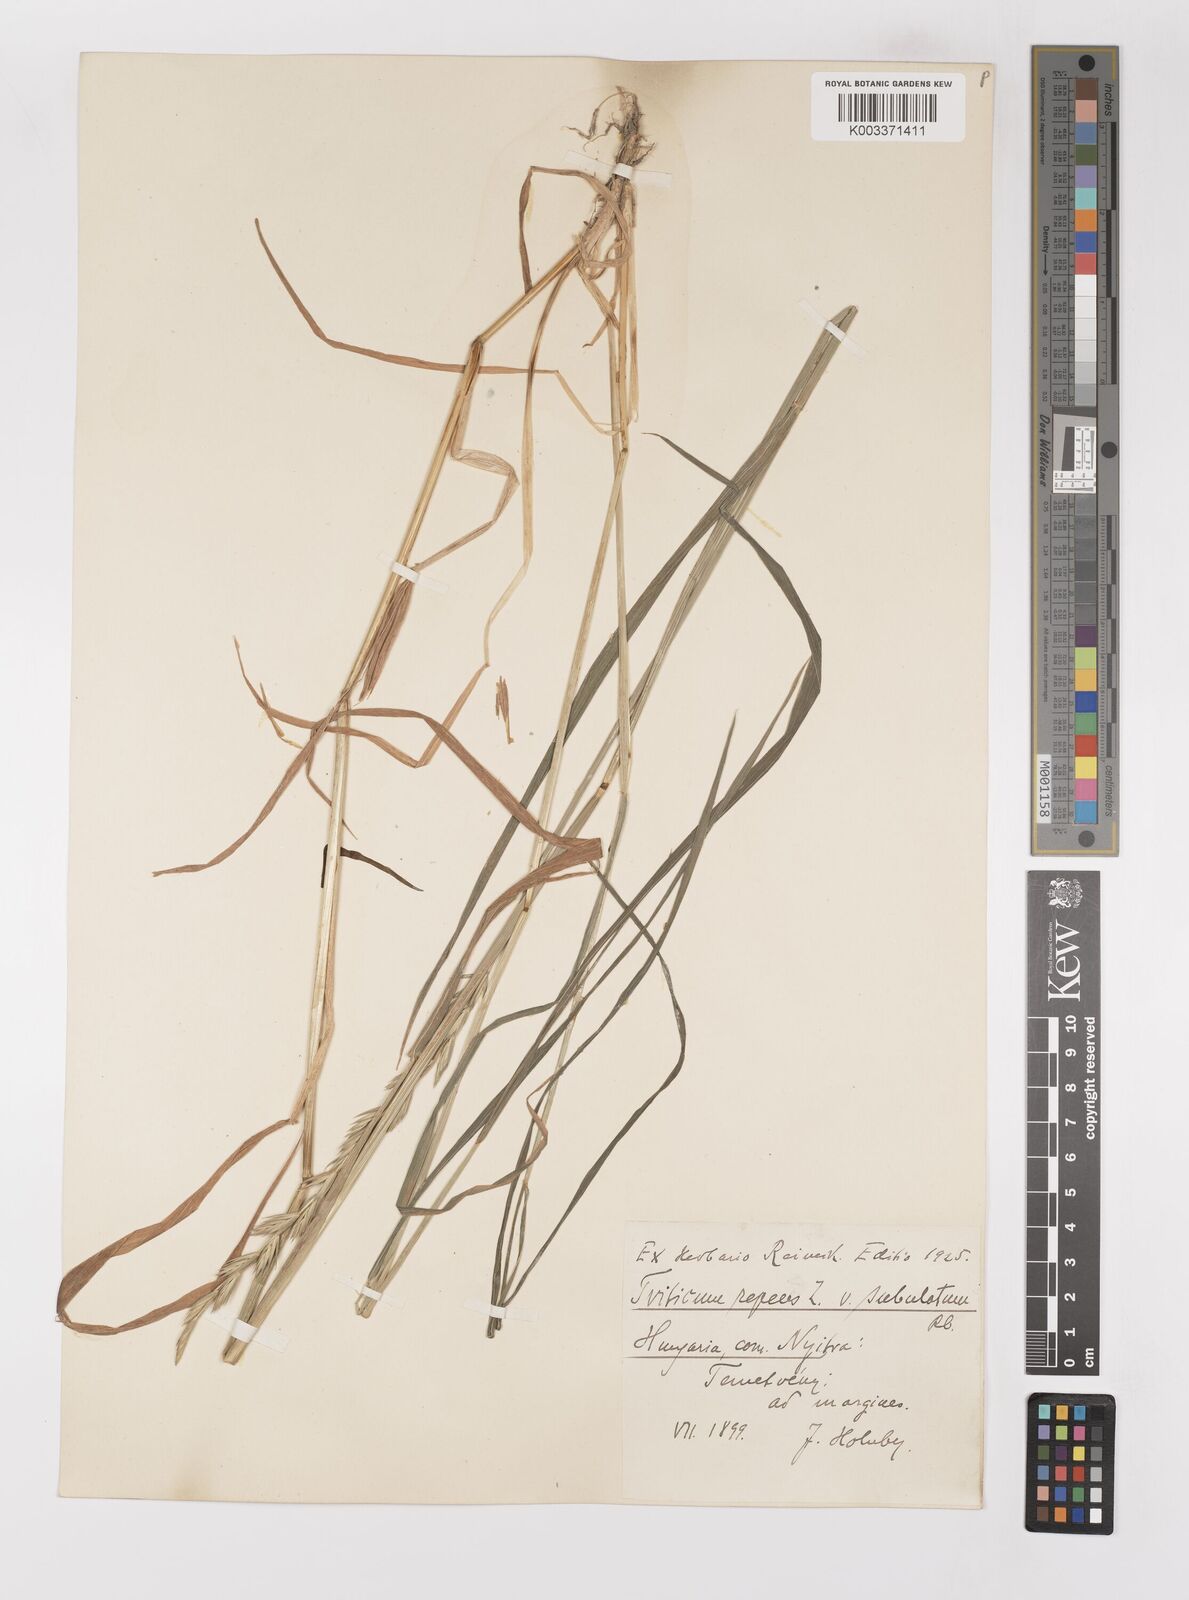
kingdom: Plantae
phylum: Tracheophyta
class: Liliopsida
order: Poales
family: Poaceae
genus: Elymus
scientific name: Elymus repens
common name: Quackgrass
